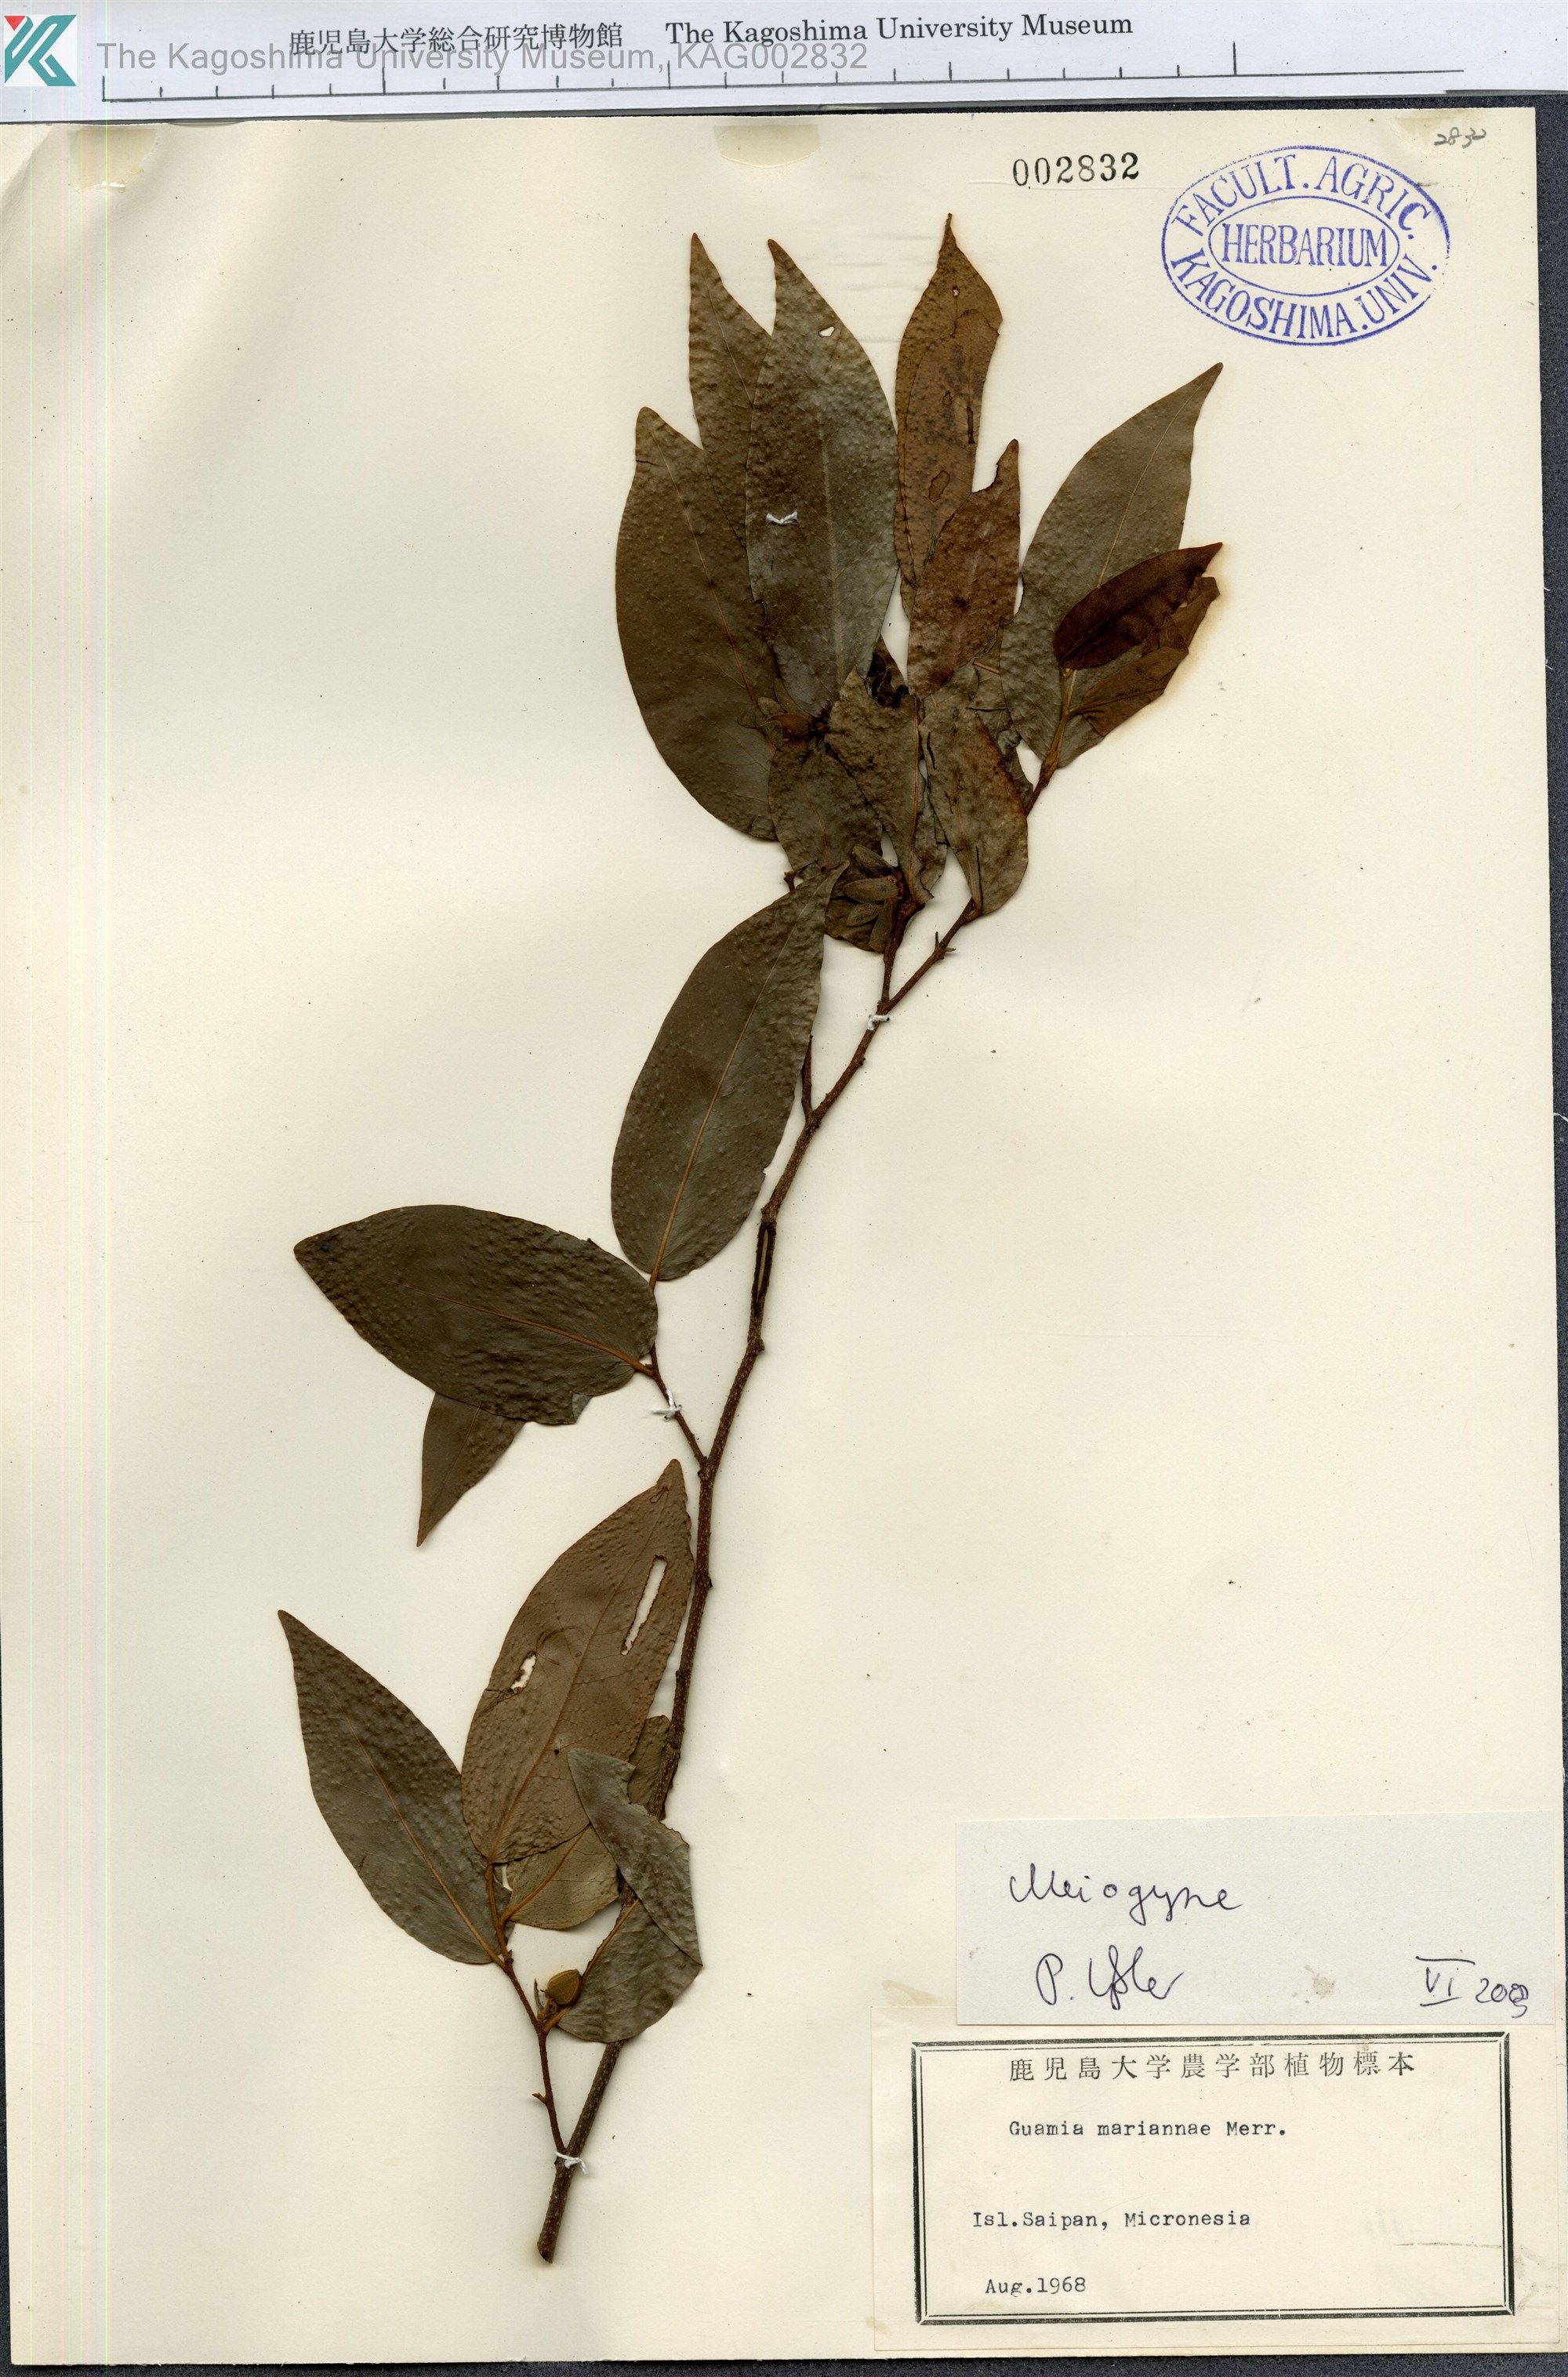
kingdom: Plantae
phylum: Tracheophyta
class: Magnoliopsida
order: Magnoliales
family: Annonaceae
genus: Meiogyne
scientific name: Meiogyne
